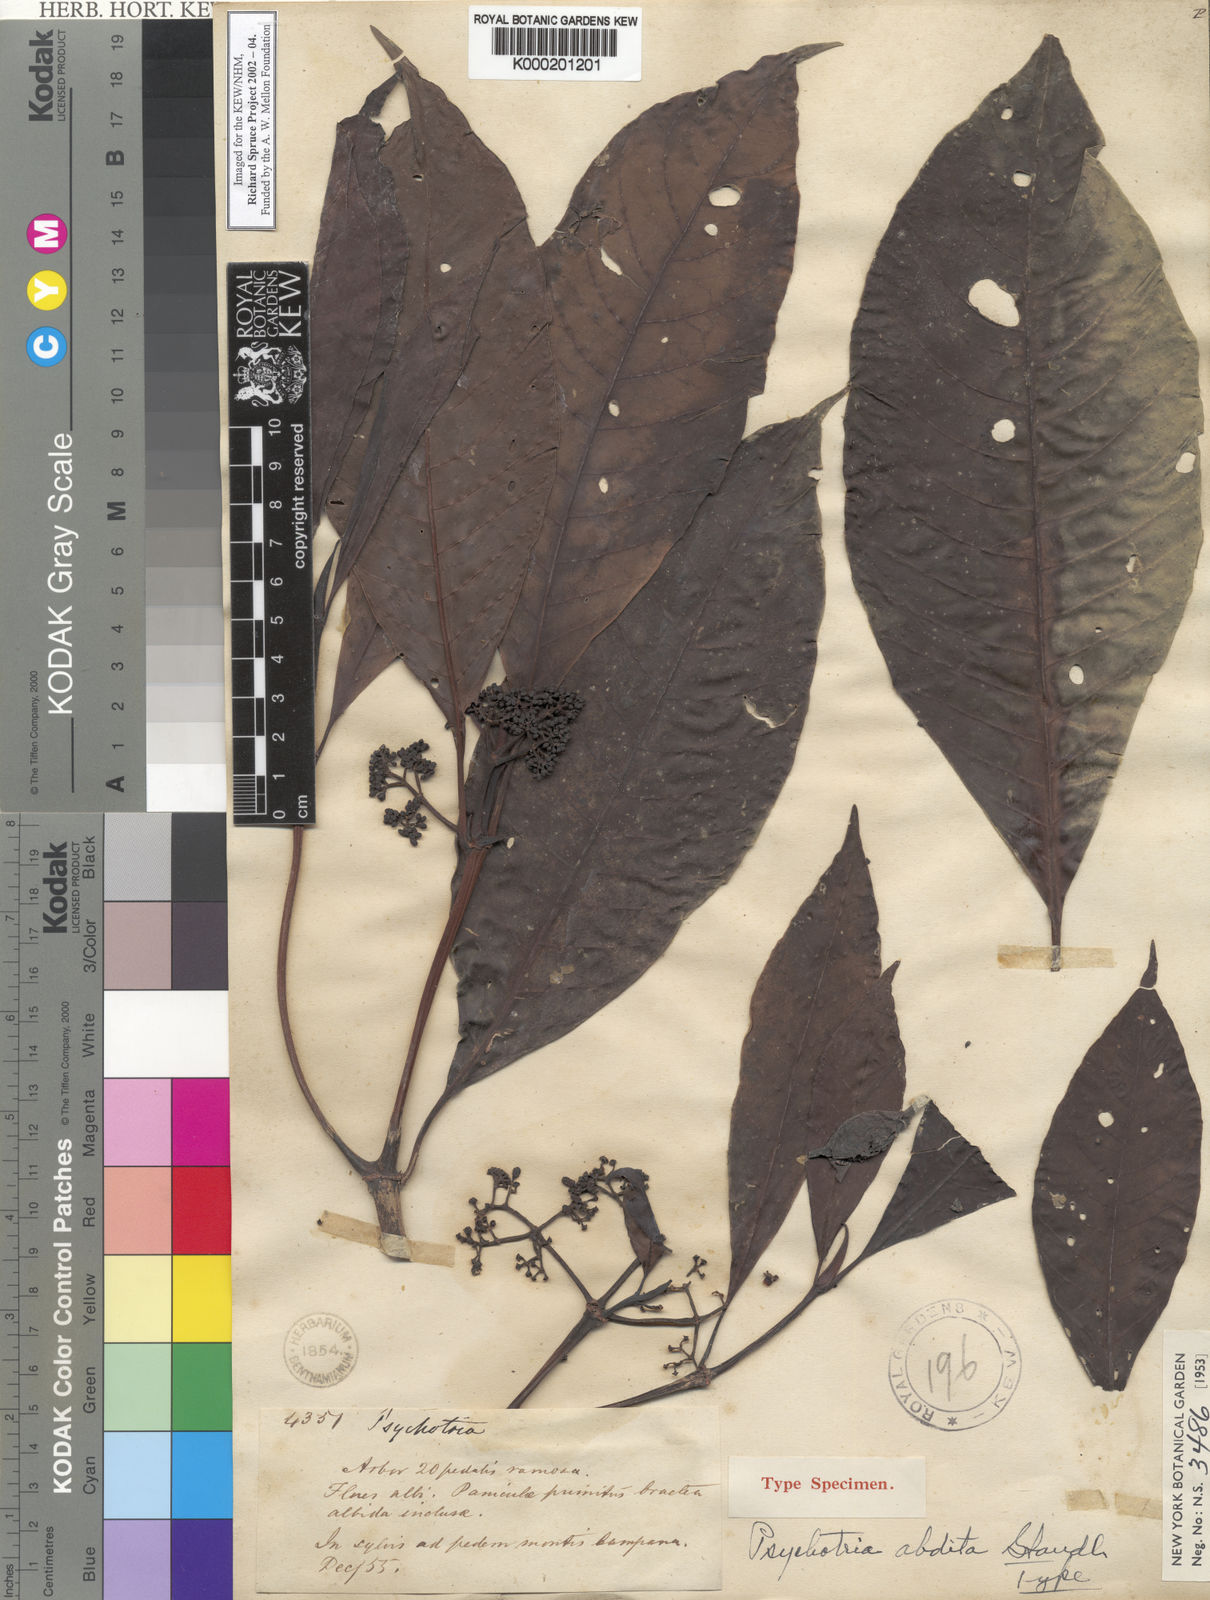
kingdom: Plantae
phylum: Tracheophyta
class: Magnoliopsida
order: Gentianales
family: Rubiaceae
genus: Psychotria
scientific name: Psychotria abdita
